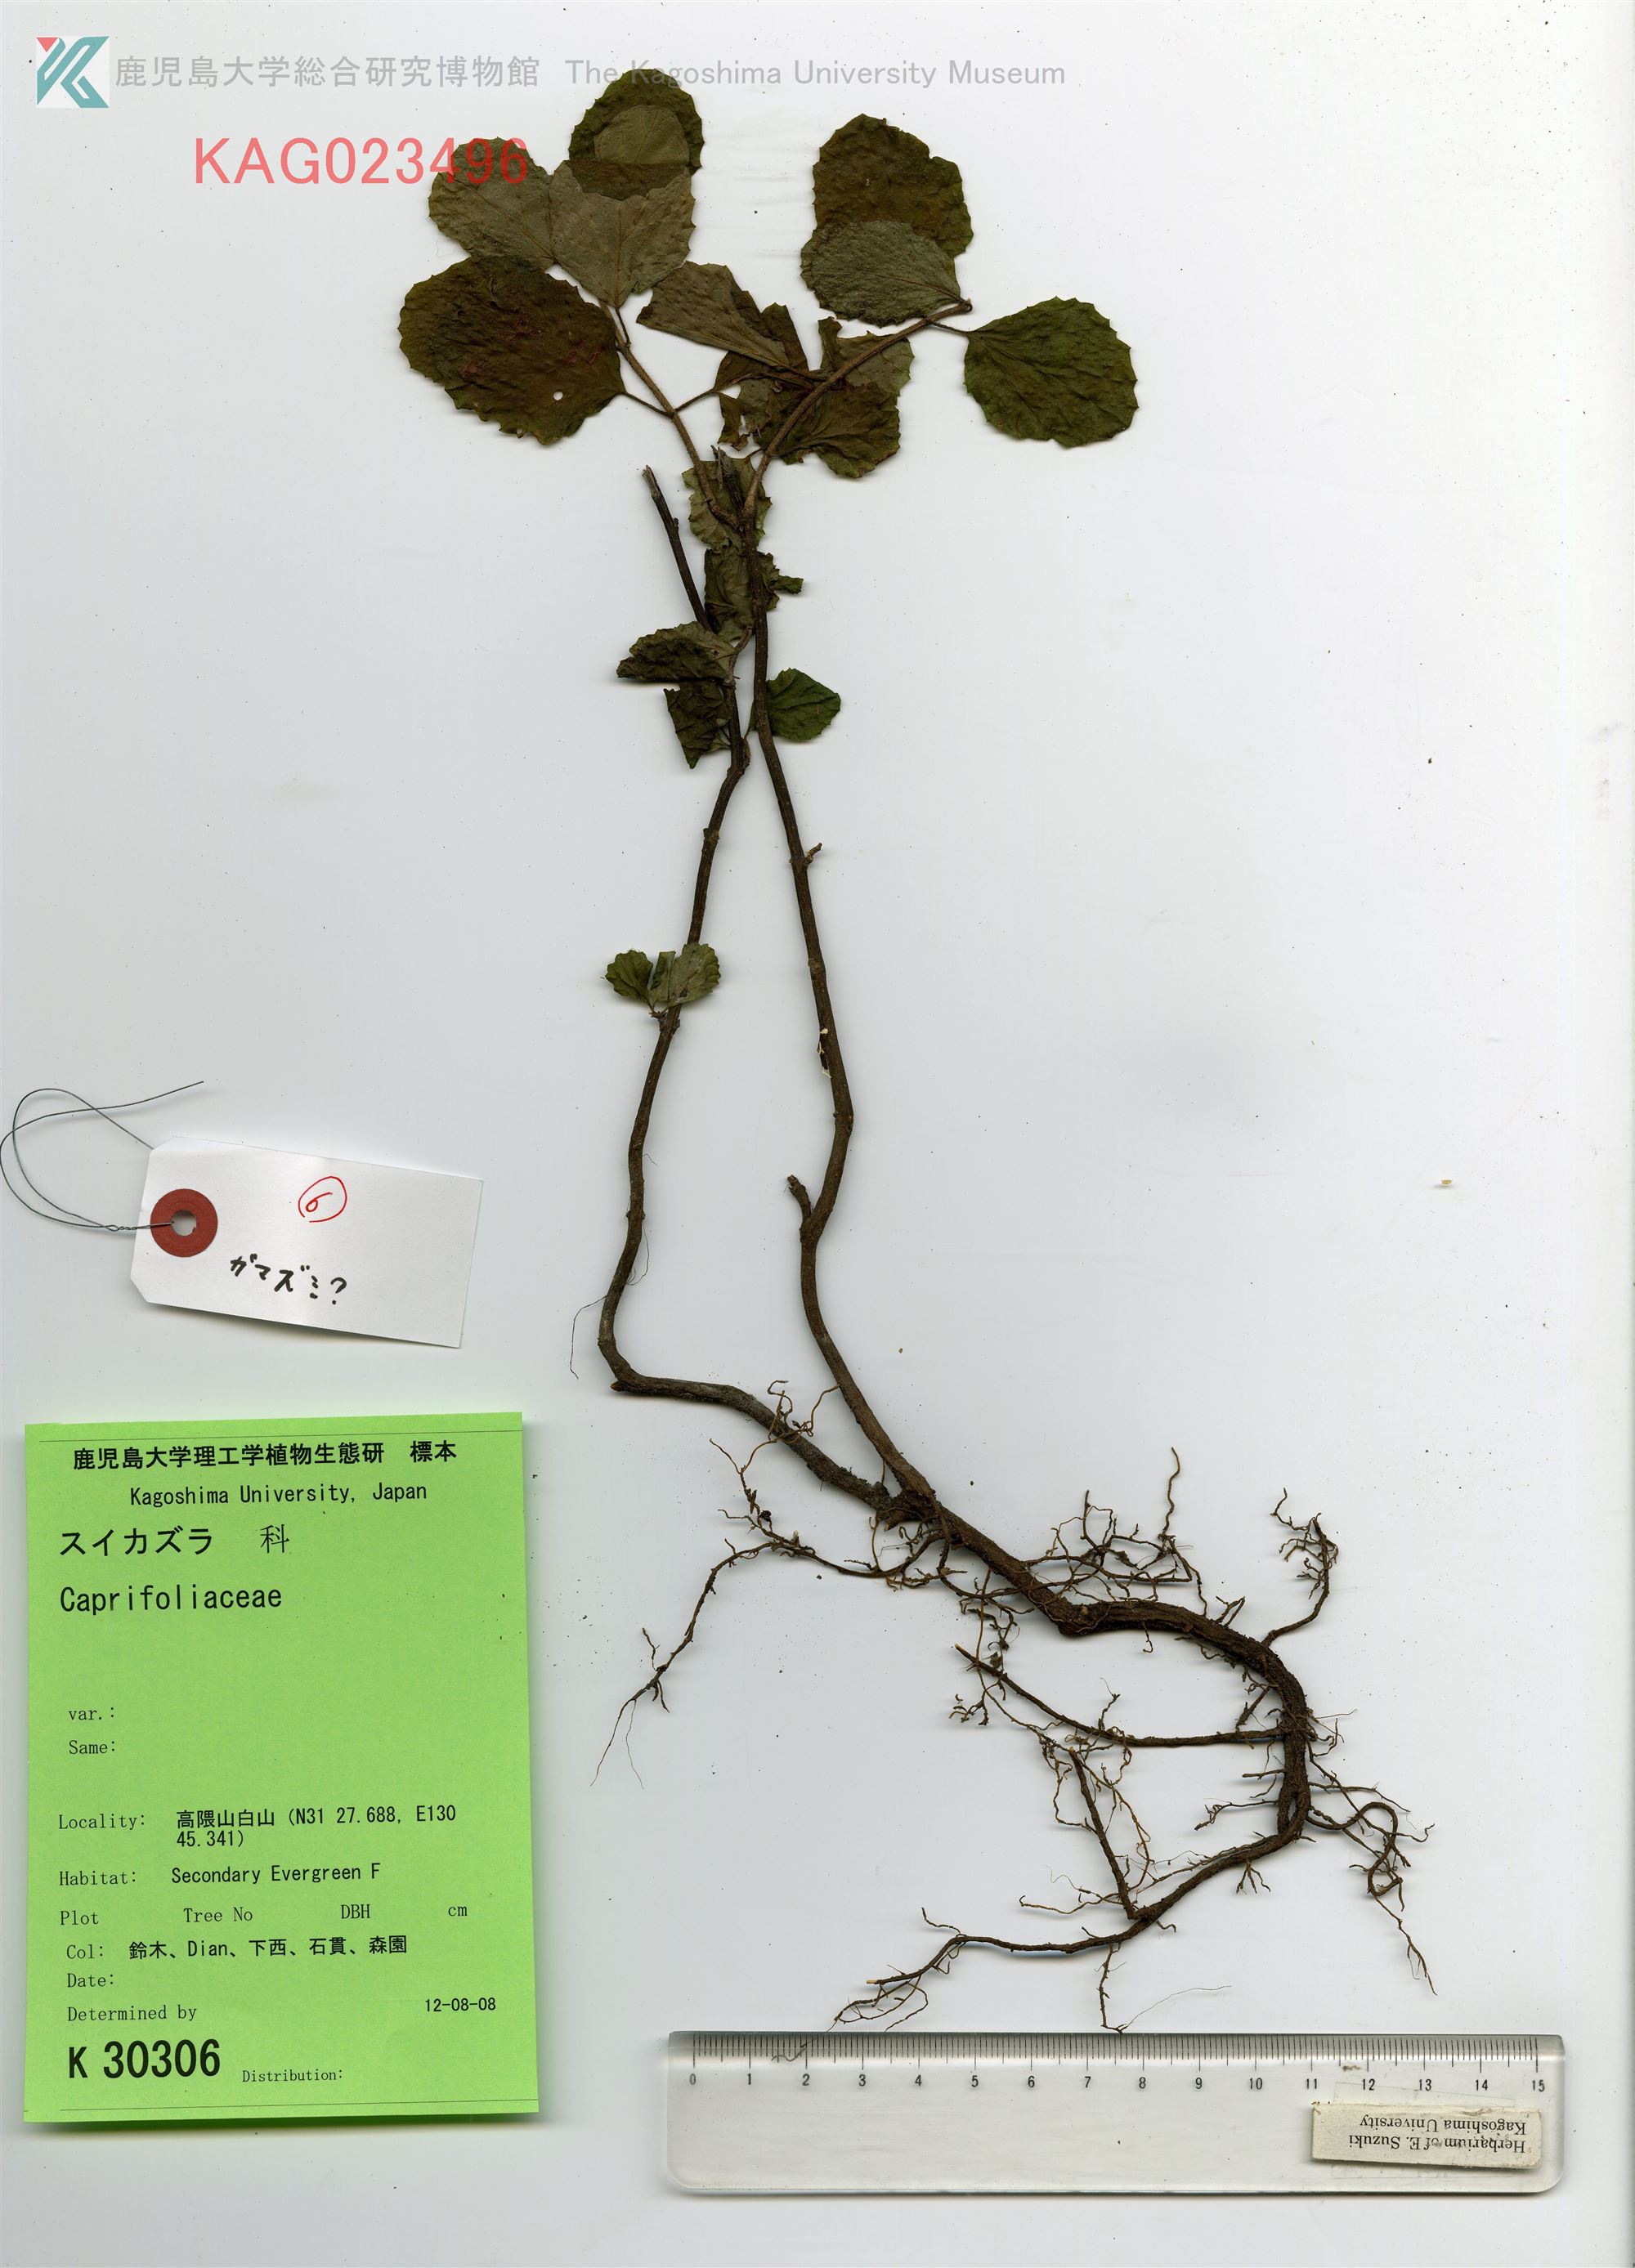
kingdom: Plantae
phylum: Tracheophyta
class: Magnoliopsida
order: Dipsacales
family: Viburnaceae
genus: Viburnum
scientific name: Viburnum dilatatum
